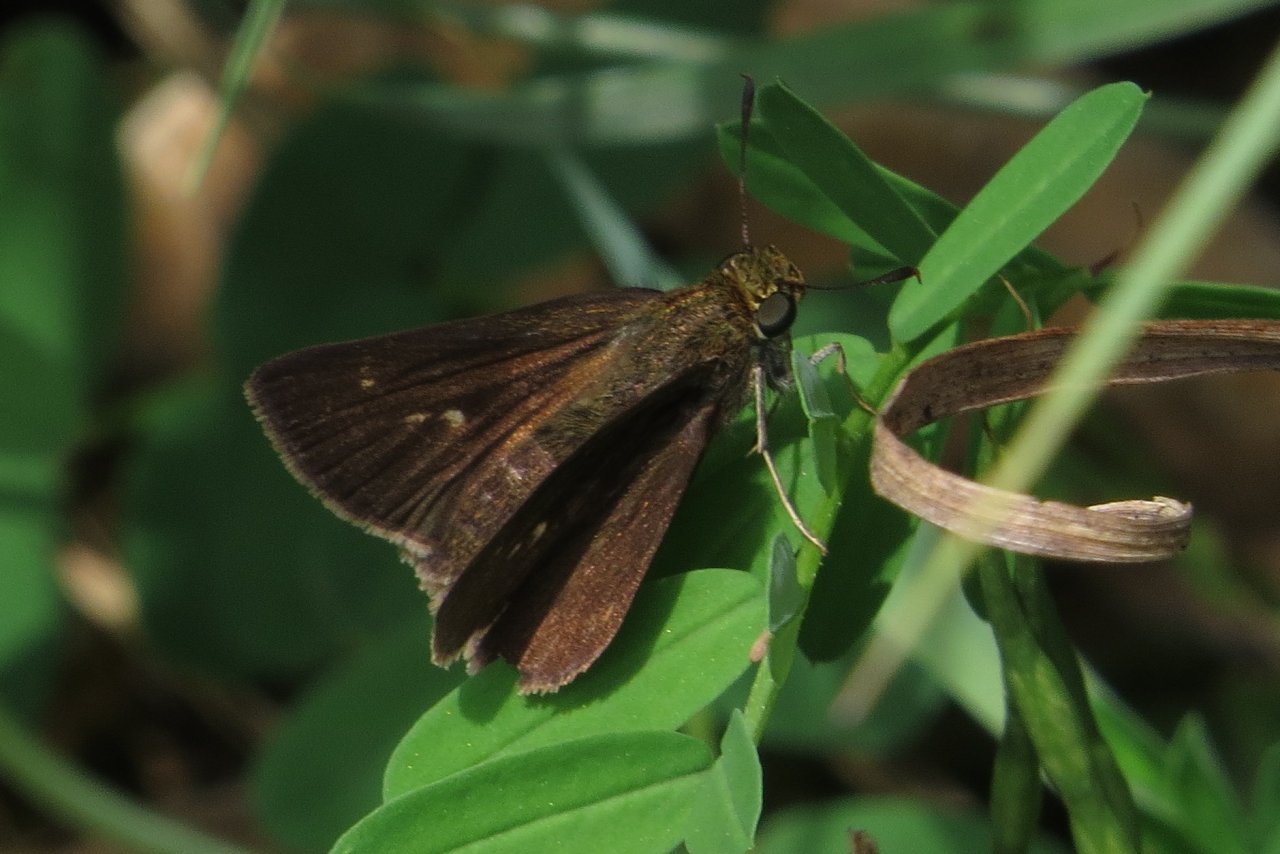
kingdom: Animalia
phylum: Arthropoda
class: Insecta
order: Lepidoptera
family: Hesperiidae
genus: Euphyes
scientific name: Euphyes vestris
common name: Dun Skipper
